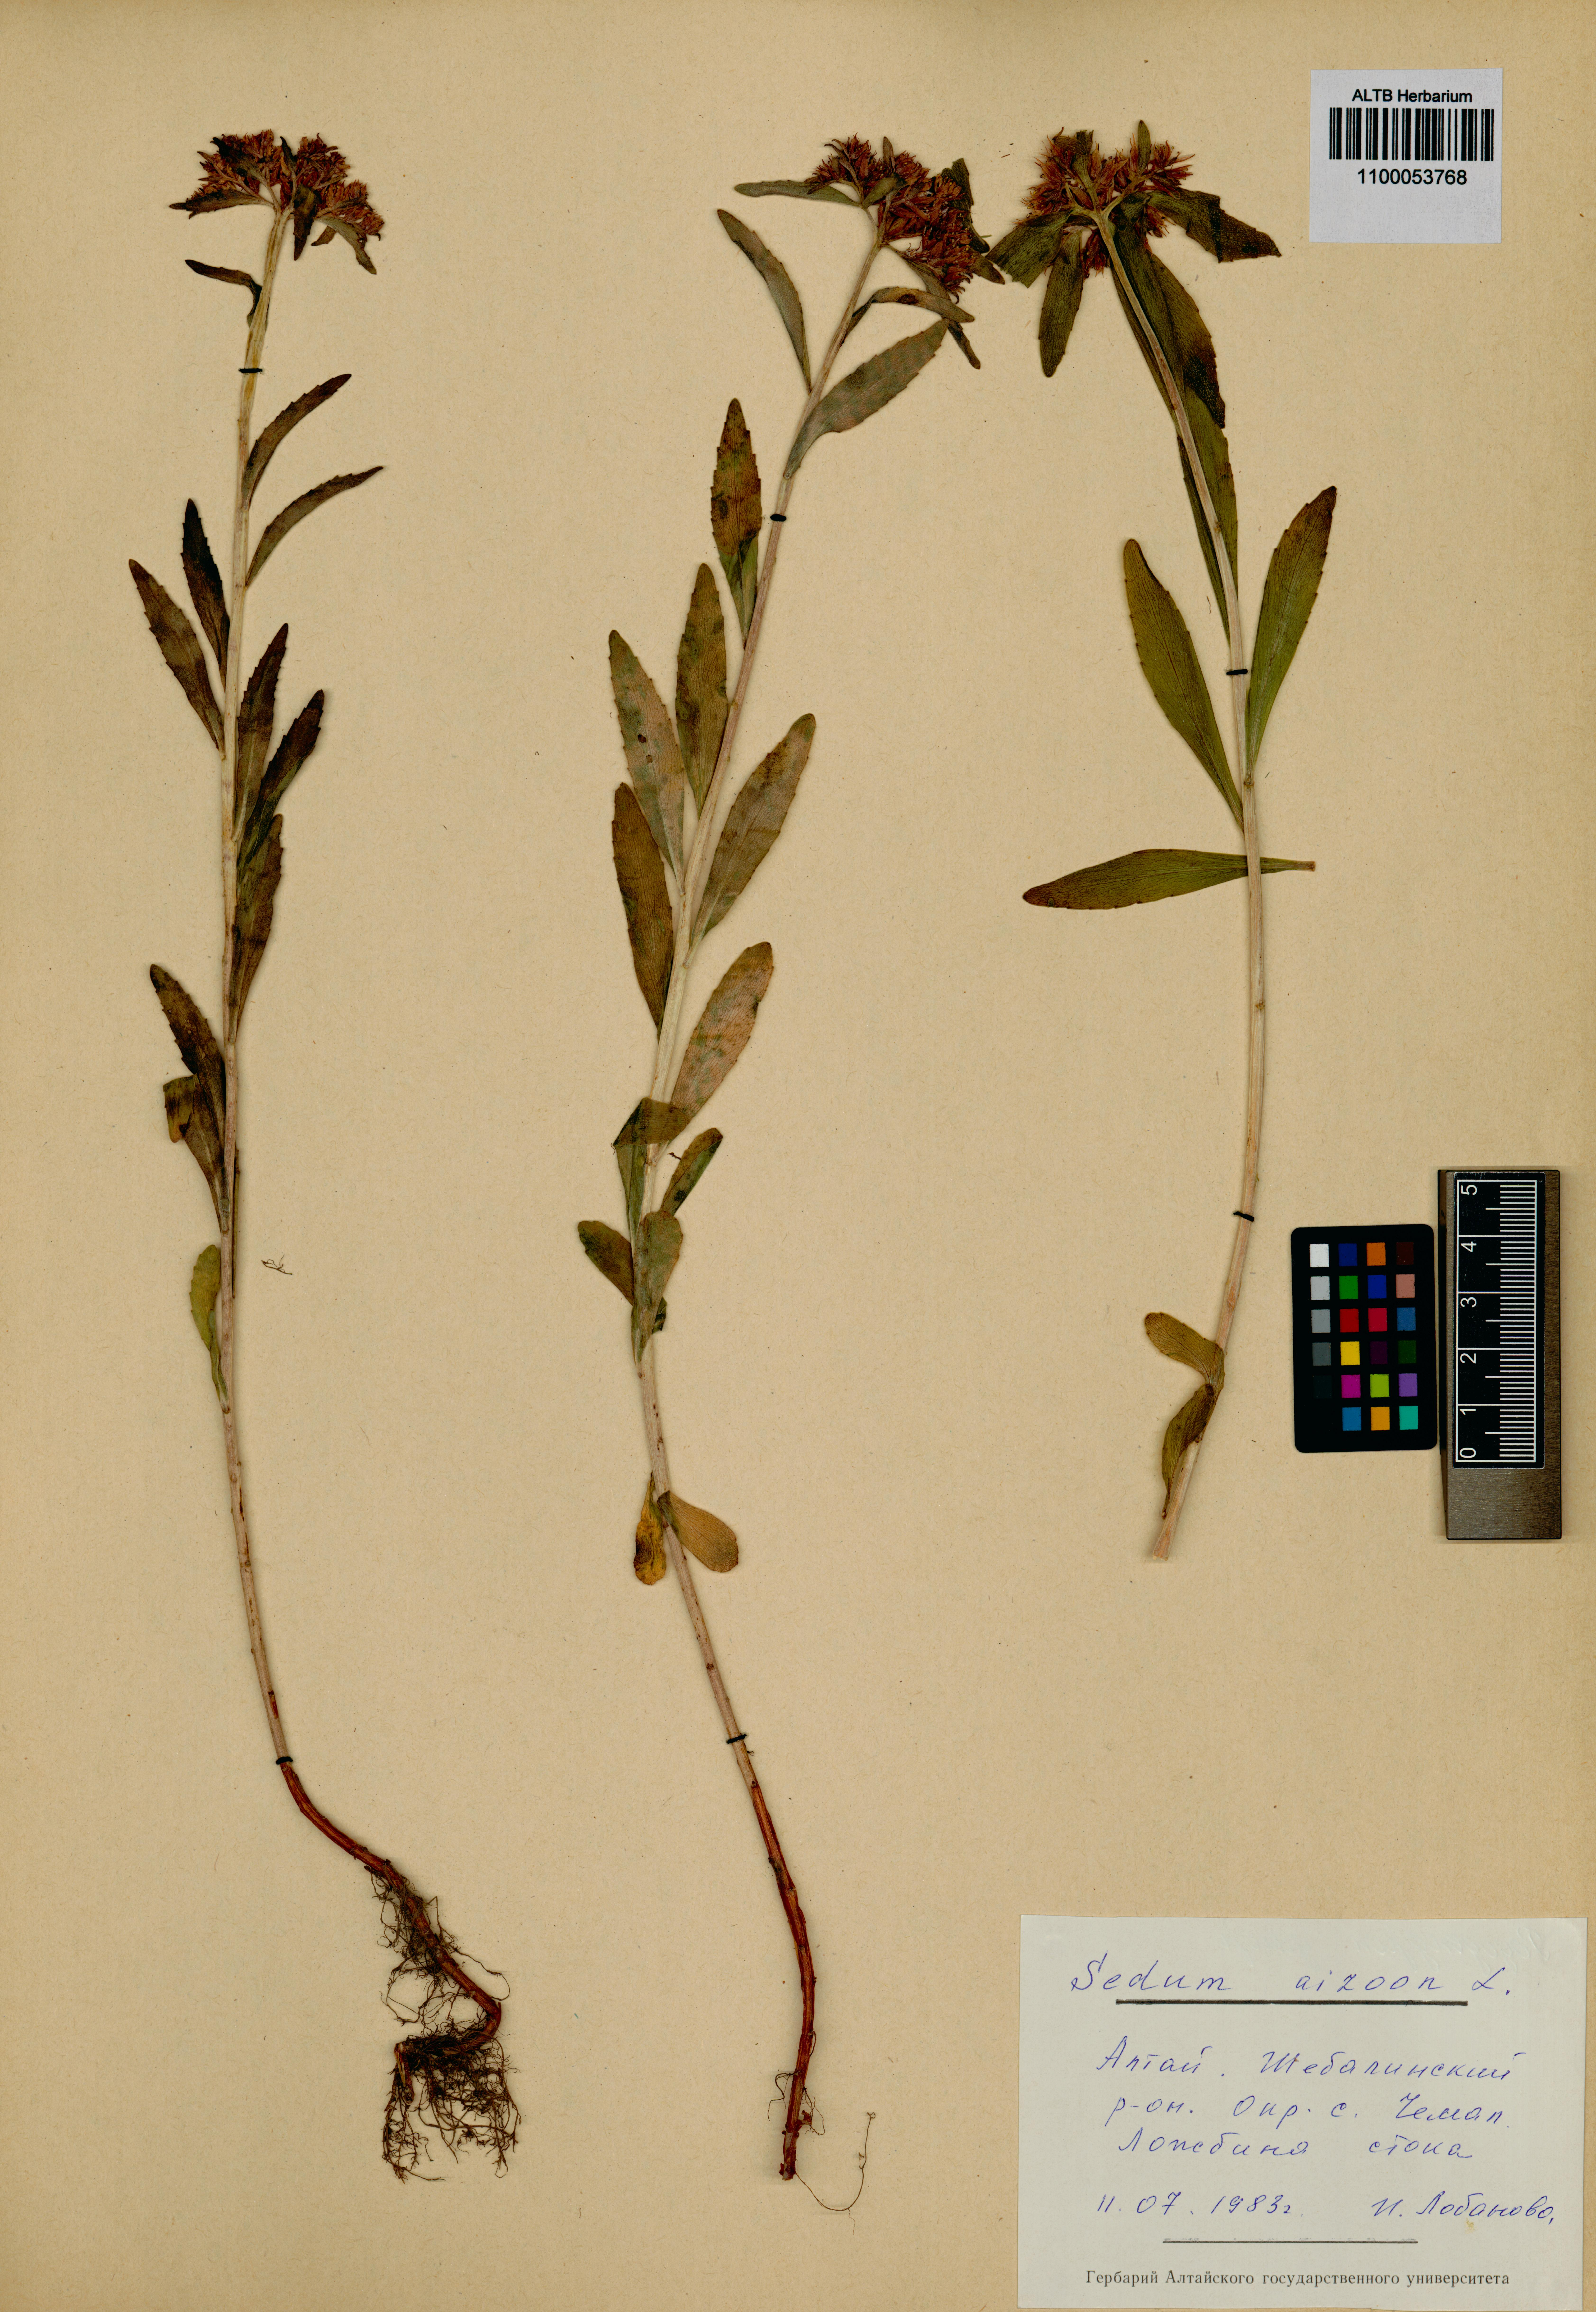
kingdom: Plantae
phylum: Tracheophyta
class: Magnoliopsida
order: Saxifragales
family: Crassulaceae
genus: Phedimus
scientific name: Phedimus aizoon
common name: Orpin aizoon
